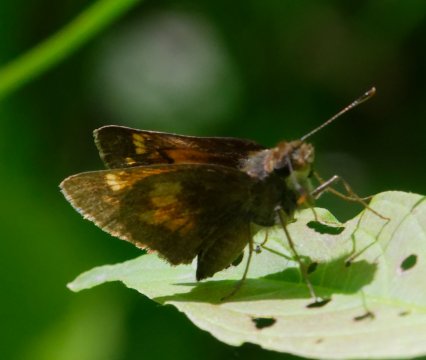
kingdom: Animalia
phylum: Arthropoda
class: Insecta
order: Lepidoptera
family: Hesperiidae
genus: Lon
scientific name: Lon hobomok
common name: Hobomok Skipper
